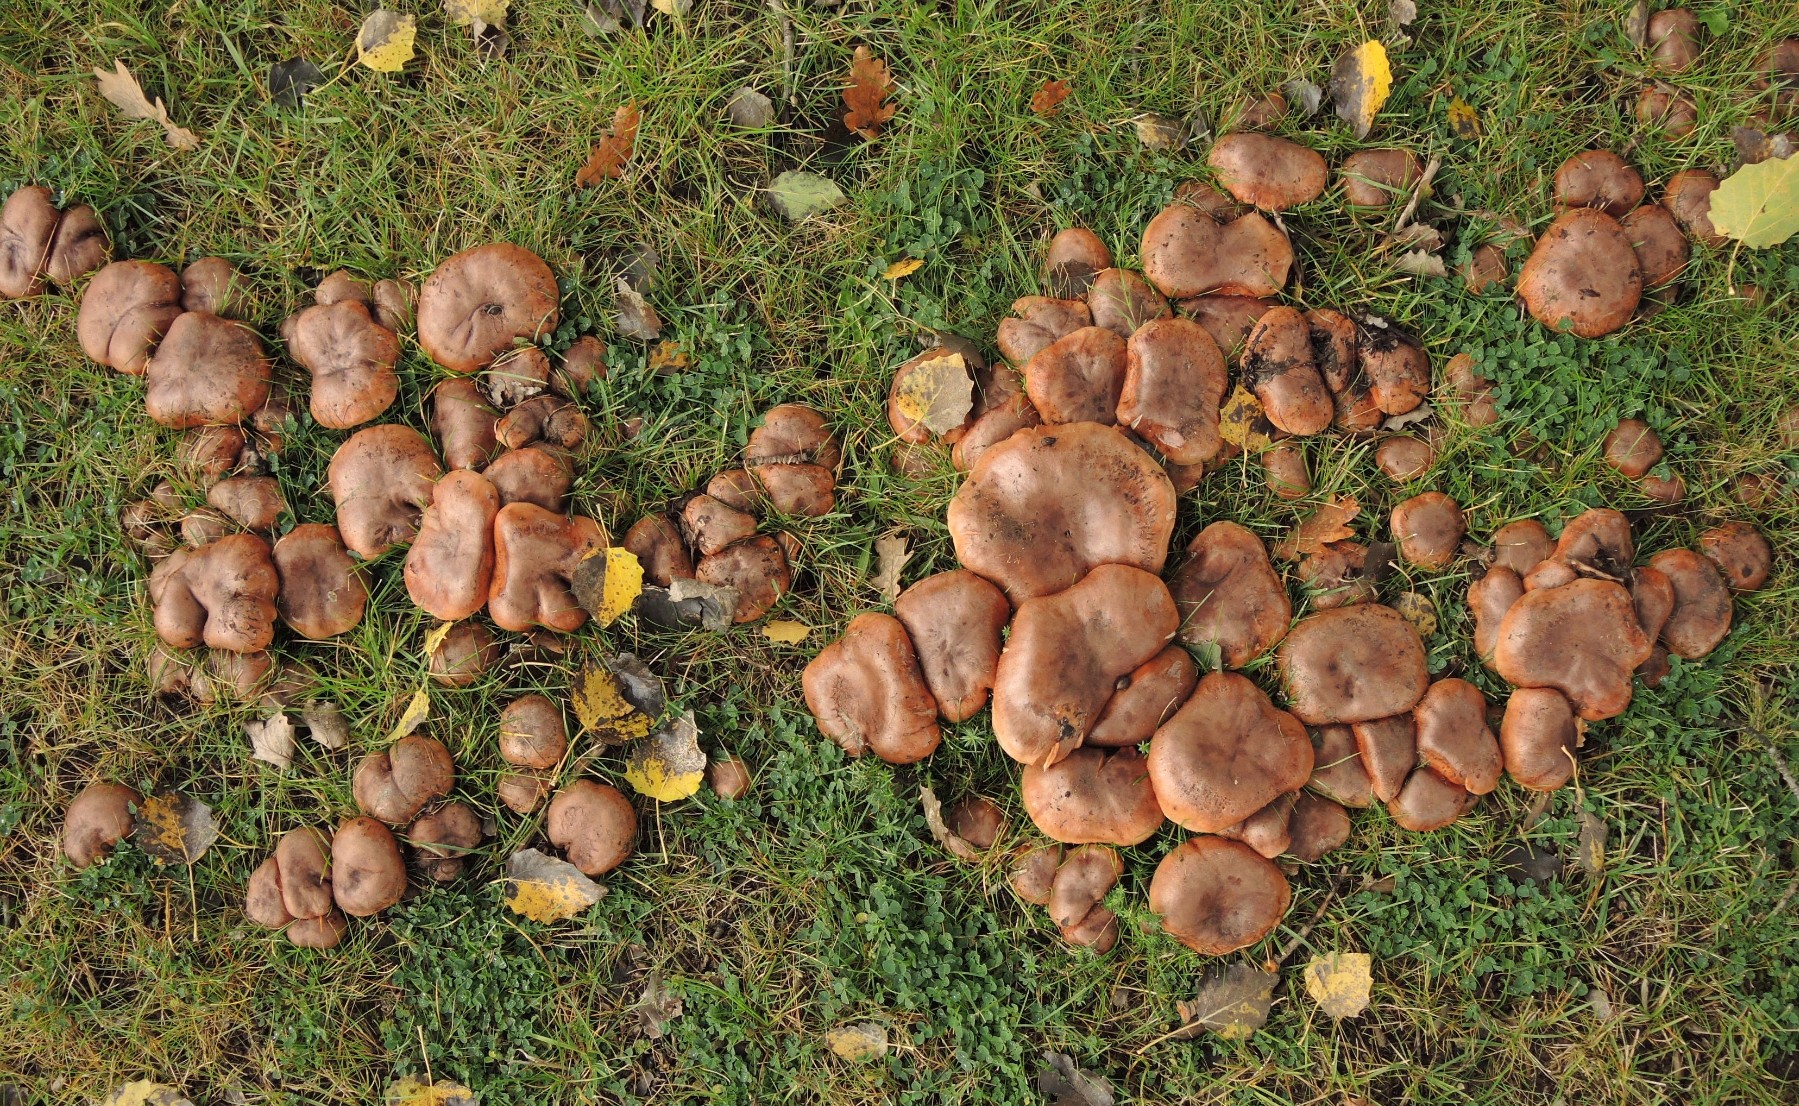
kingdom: Fungi
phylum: Basidiomycota
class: Agaricomycetes
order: Agaricales
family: Tricholomataceae
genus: Tricholoma
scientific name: Tricholoma populinum
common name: poppel-ridderhat
